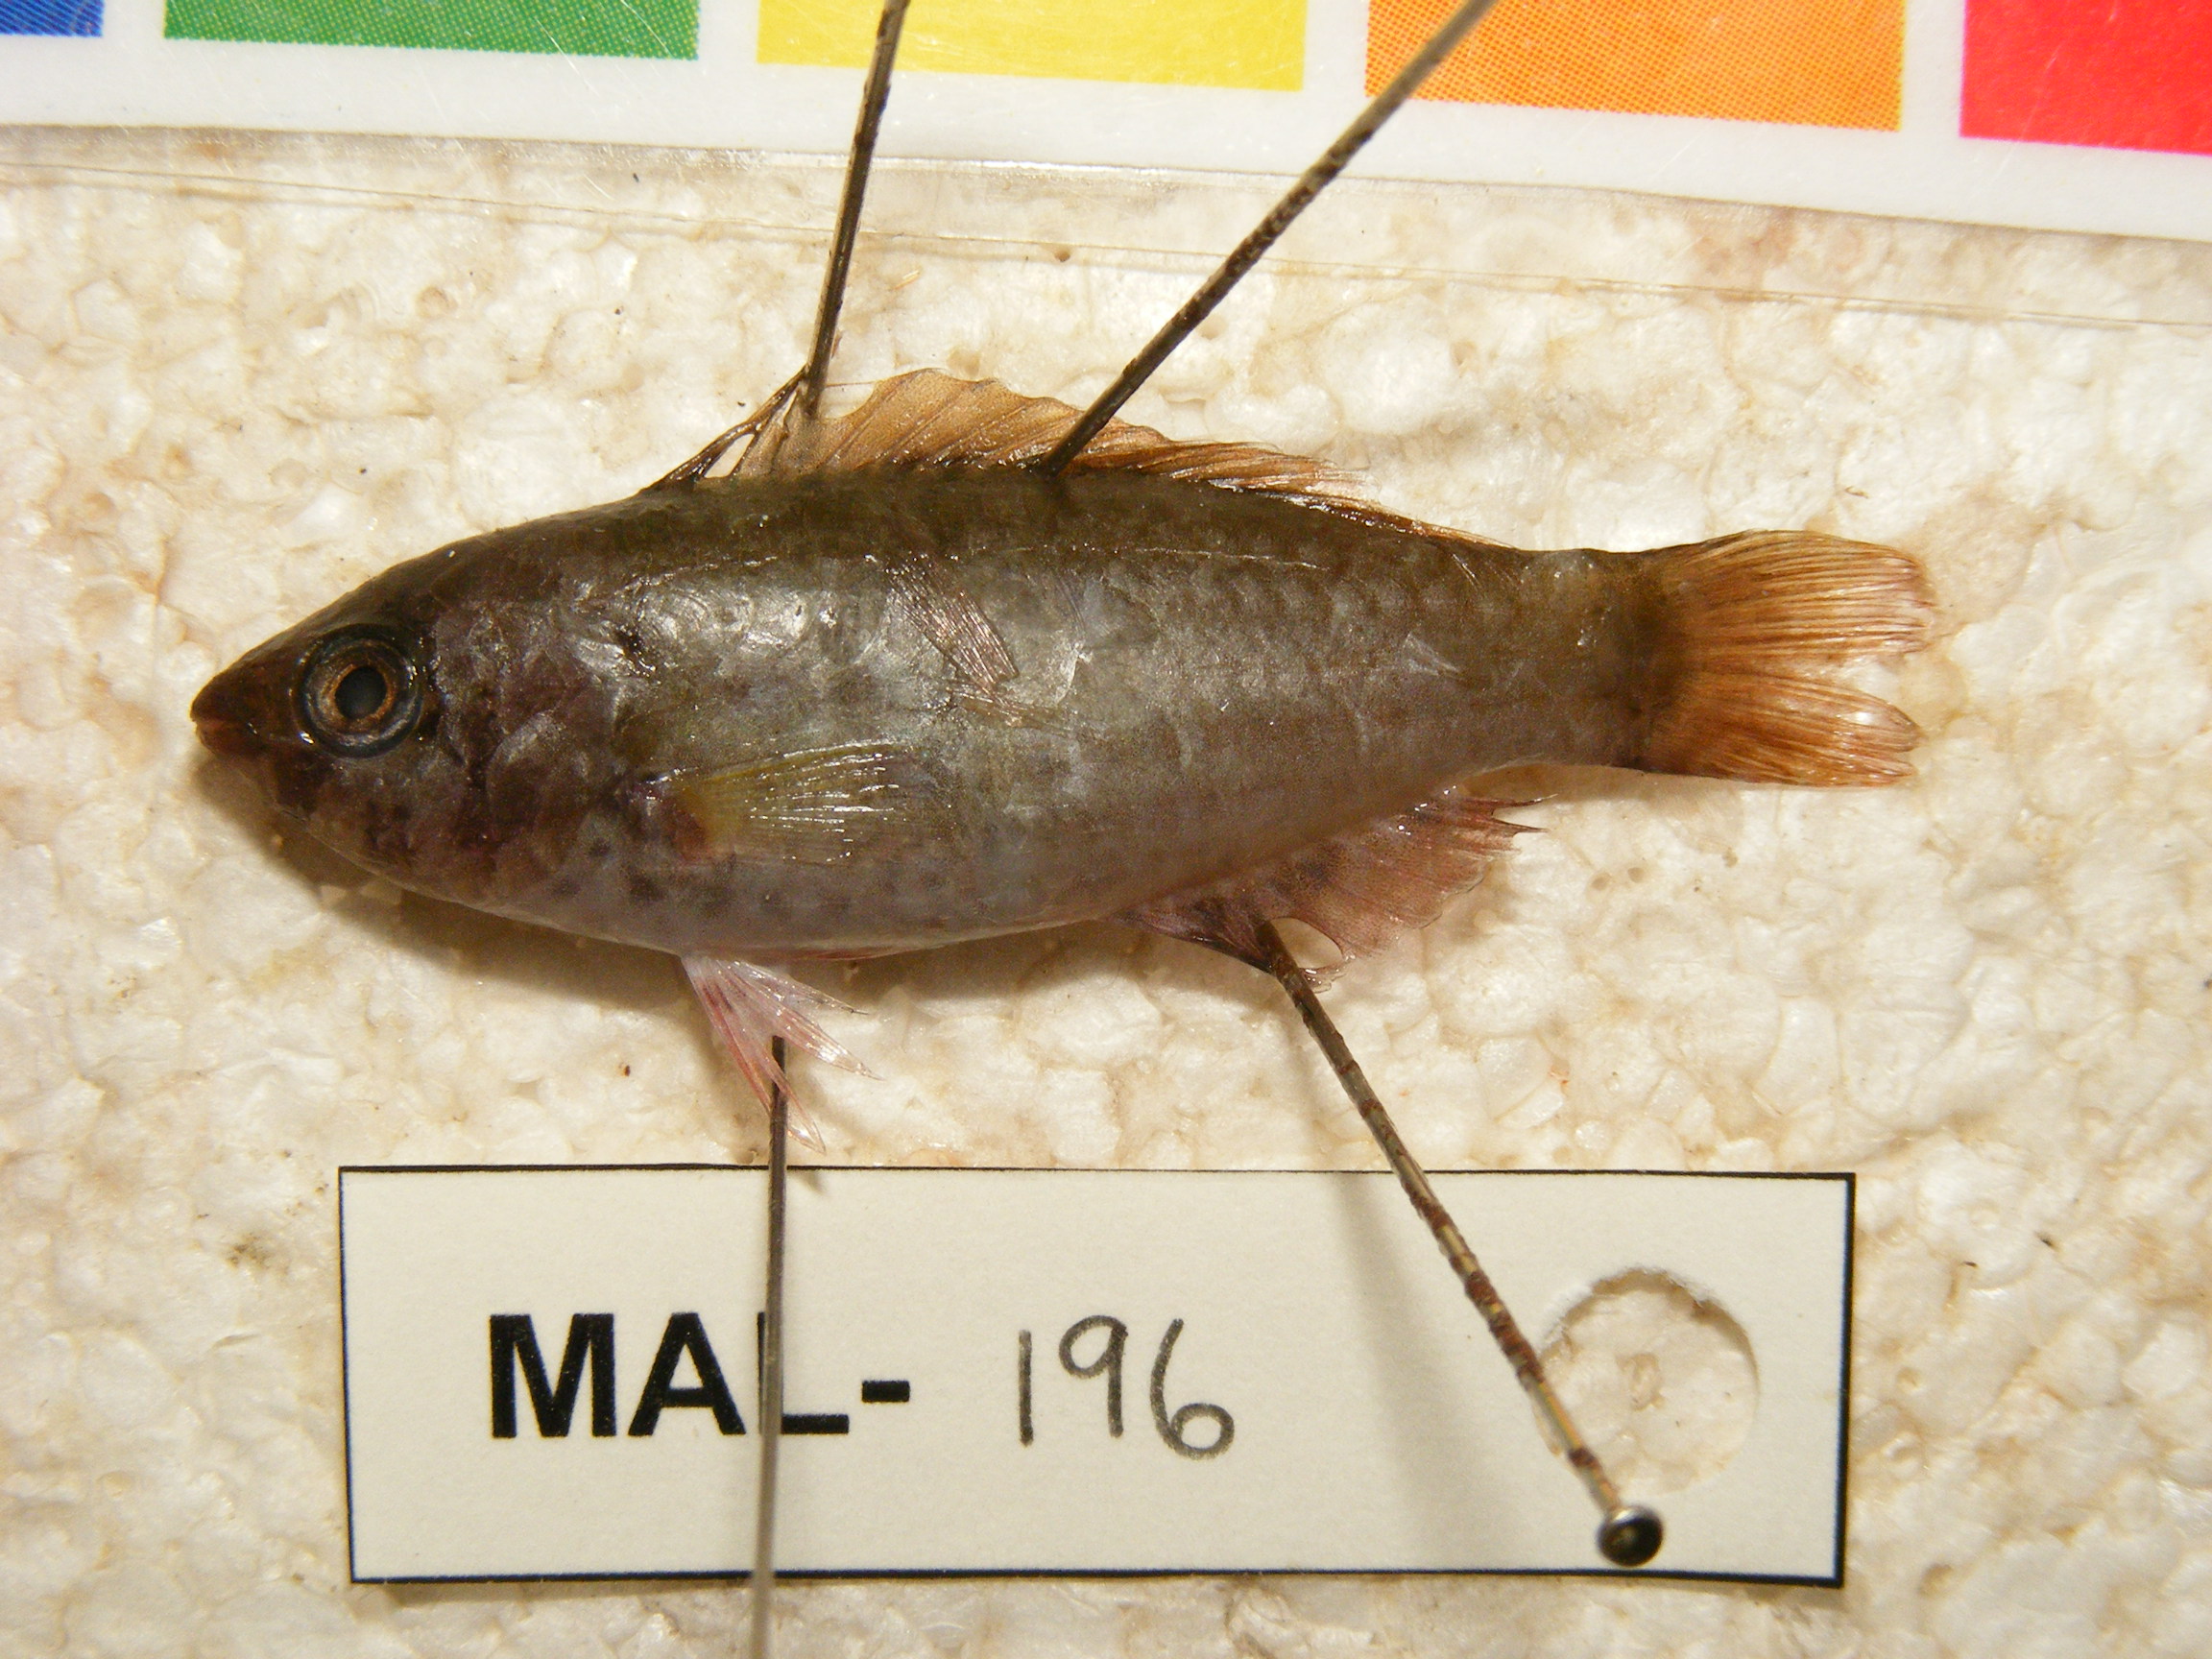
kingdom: Animalia
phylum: Chordata
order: Perciformes
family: Scaridae
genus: Scarus
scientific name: Scarus russelii
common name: Eclipse parrotfish
